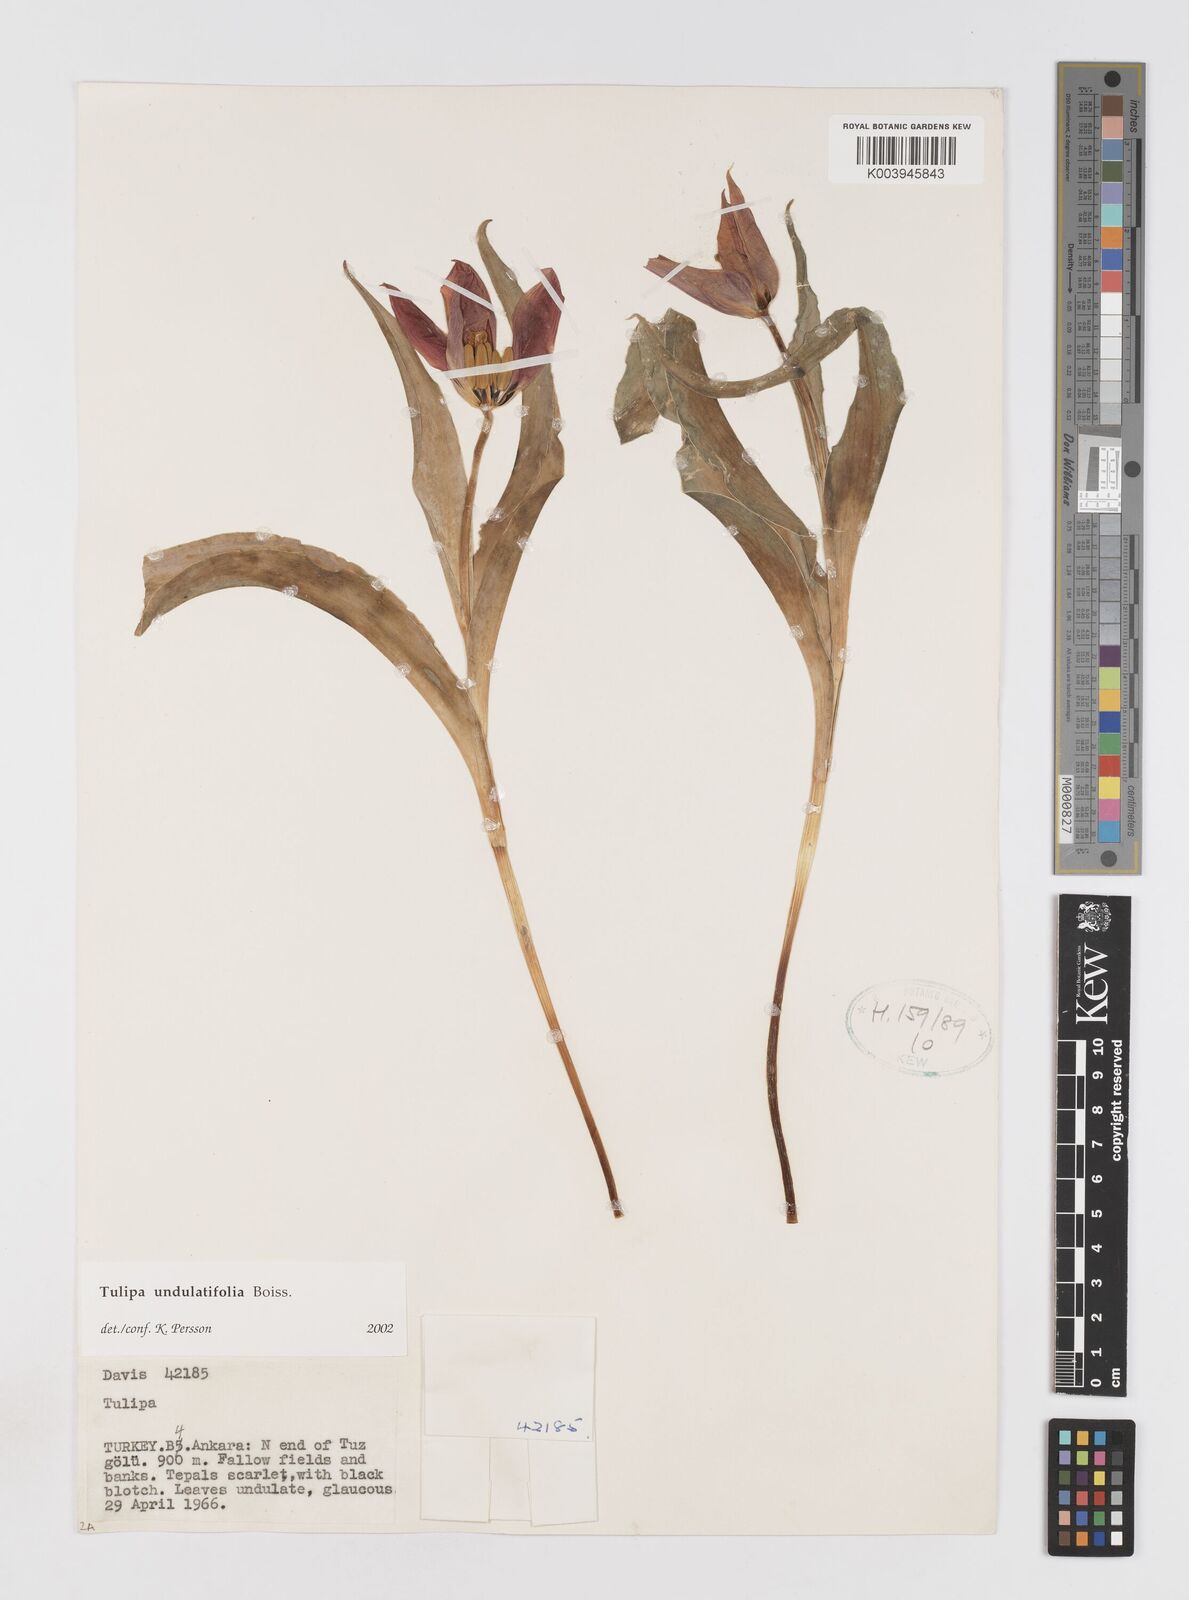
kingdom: Plantae
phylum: Tracheophyta
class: Liliopsida
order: Liliales
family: Liliaceae
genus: Tulipa
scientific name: Tulipa undulatifolia
